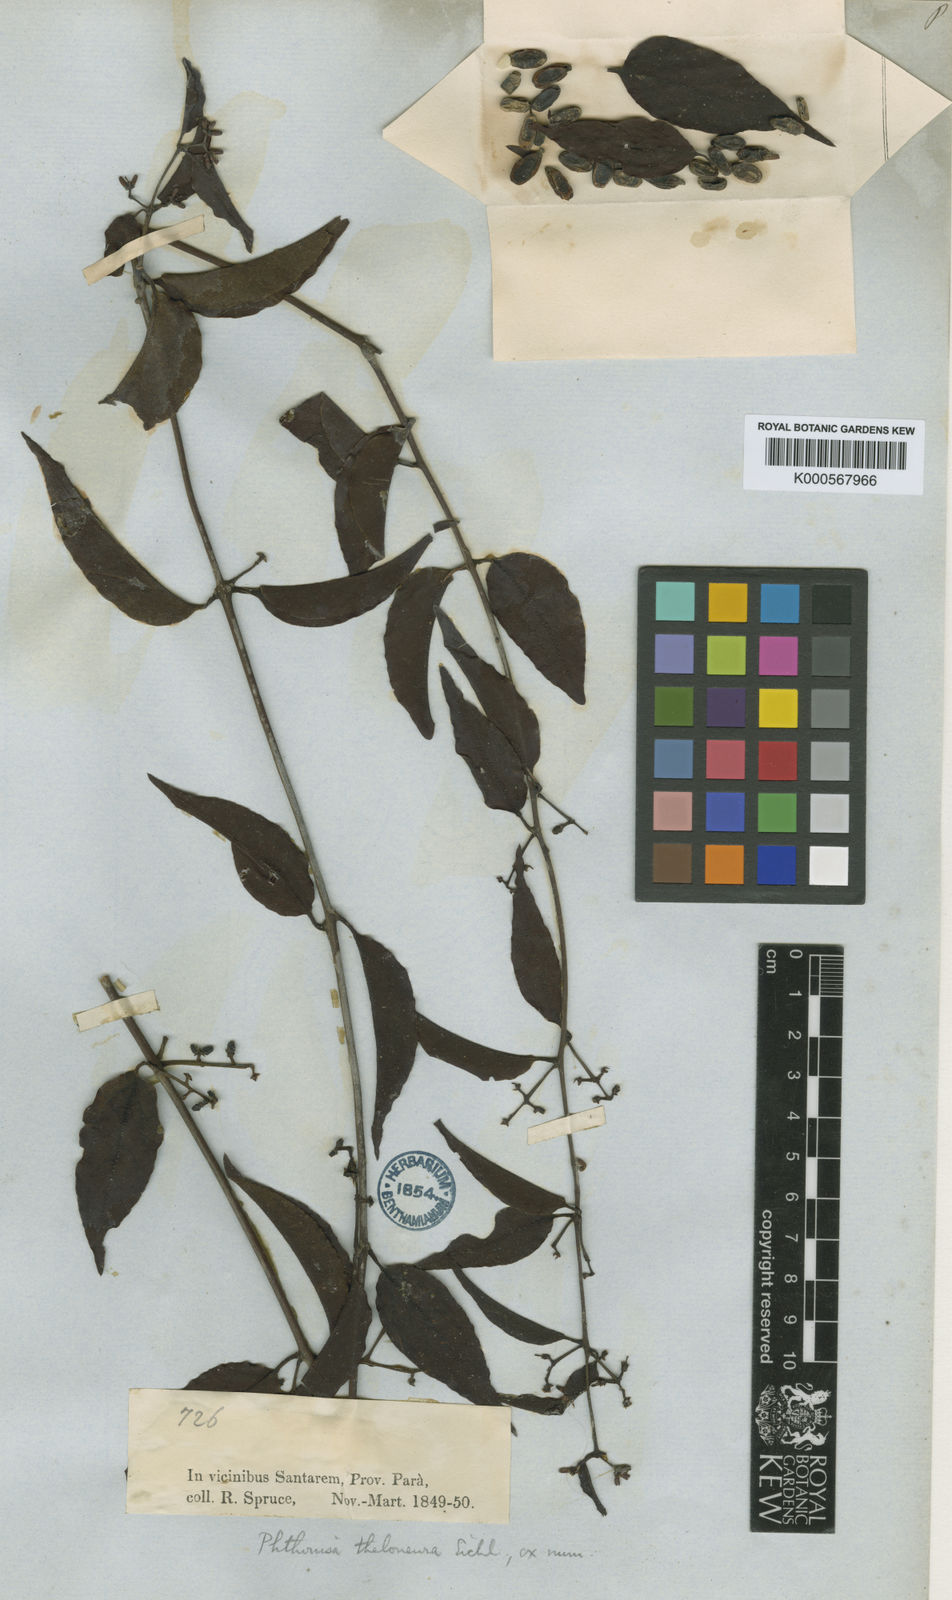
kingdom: Plantae
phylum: Tracheophyta
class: Magnoliopsida
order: Santalales
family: Loranthaceae
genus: Passovia
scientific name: Passovia theloneura
